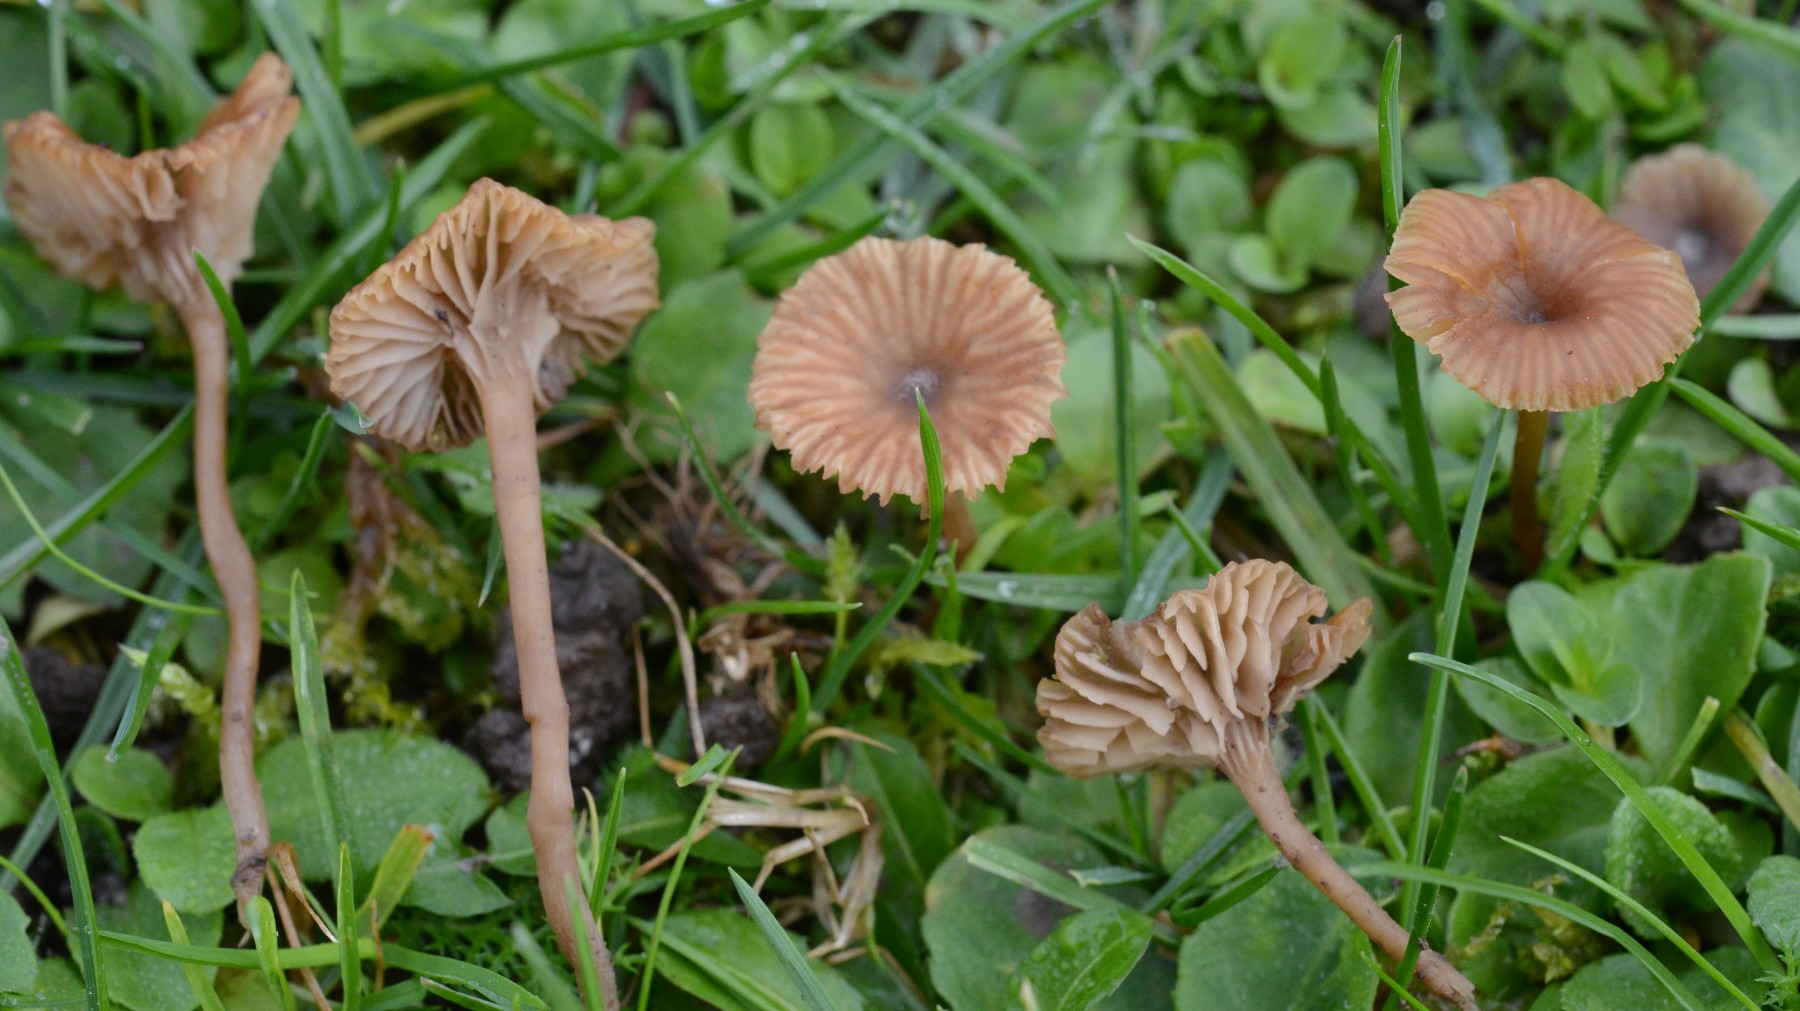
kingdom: Fungi
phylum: Basidiomycota
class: Agaricomycetes
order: Agaricales
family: Tricholomataceae
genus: Omphalina
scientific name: Omphalina pyxidata
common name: rødbrun navlehat
